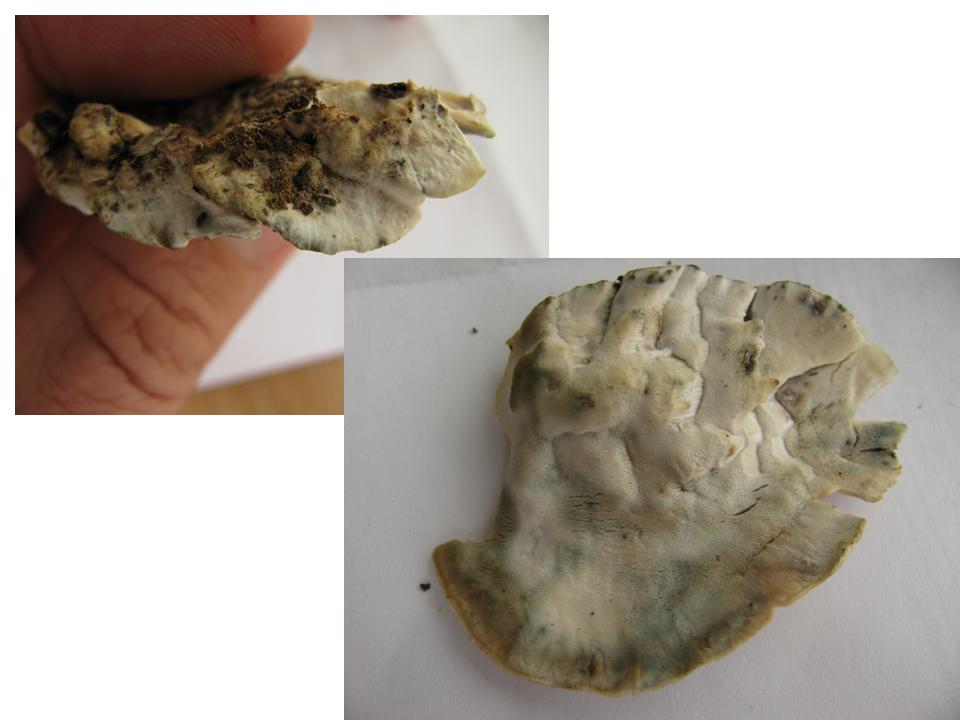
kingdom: Fungi
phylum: Basidiomycota
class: Agaricomycetes
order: Polyporales
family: Polyporaceae
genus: Cyanosporus
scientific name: Cyanosporus alni
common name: blegblå kødporesvamp
